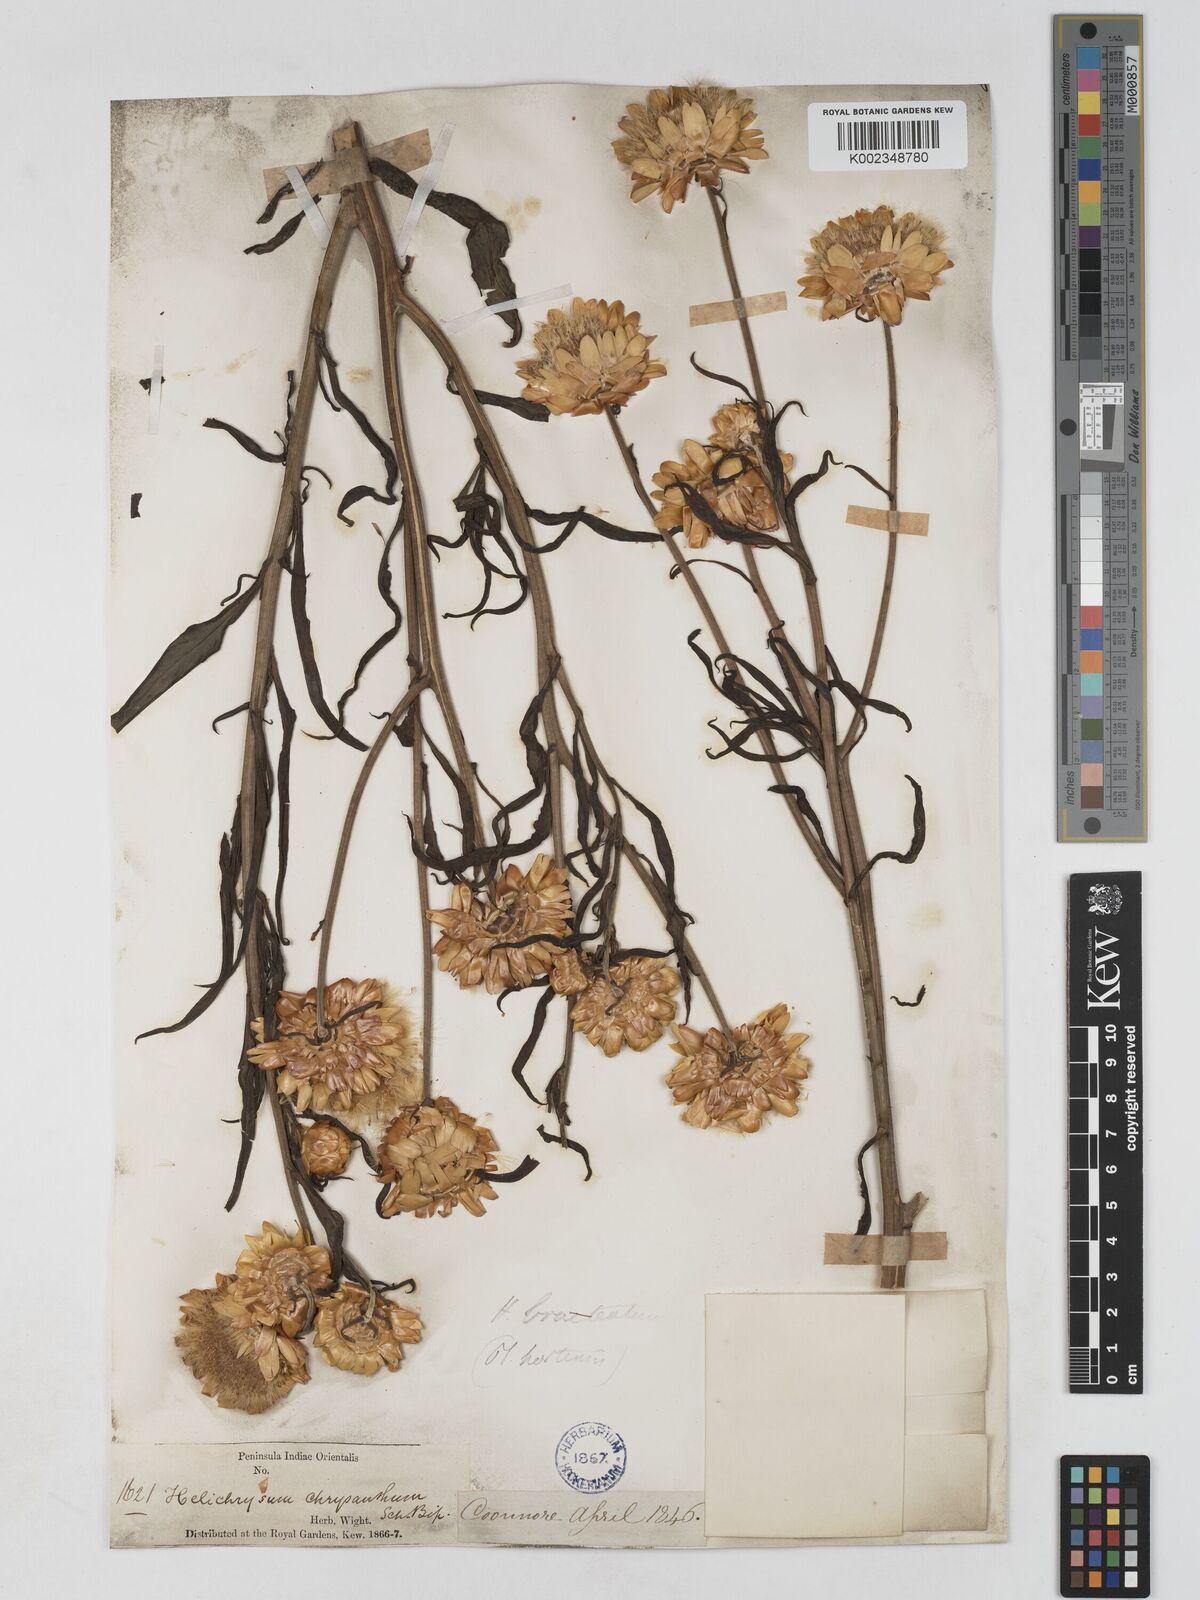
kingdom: Plantae
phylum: Tracheophyta
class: Magnoliopsida
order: Asterales
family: Asteraceae
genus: Xerochrysum
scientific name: Xerochrysum bracteatum
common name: Bracted strawflower
